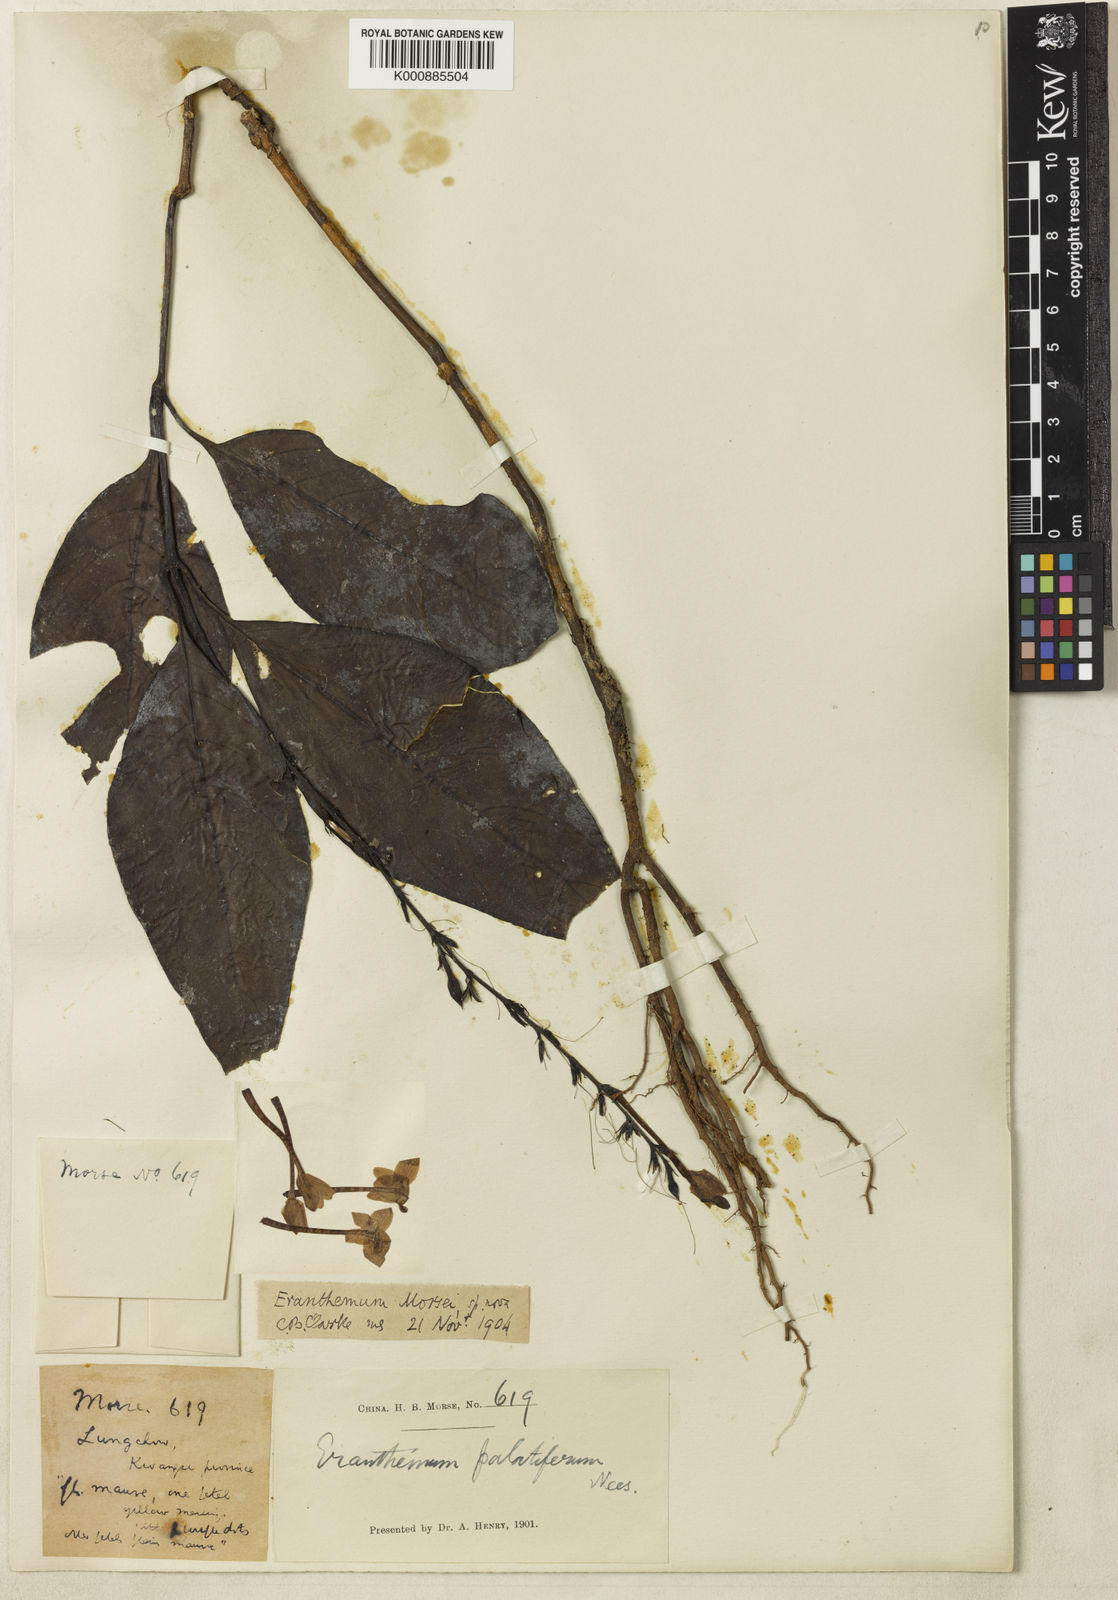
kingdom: Plantae
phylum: Tracheophyta
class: Magnoliopsida
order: Lamiales
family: Acanthaceae
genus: Pseuderanthemum
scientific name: Pseuderanthemum
